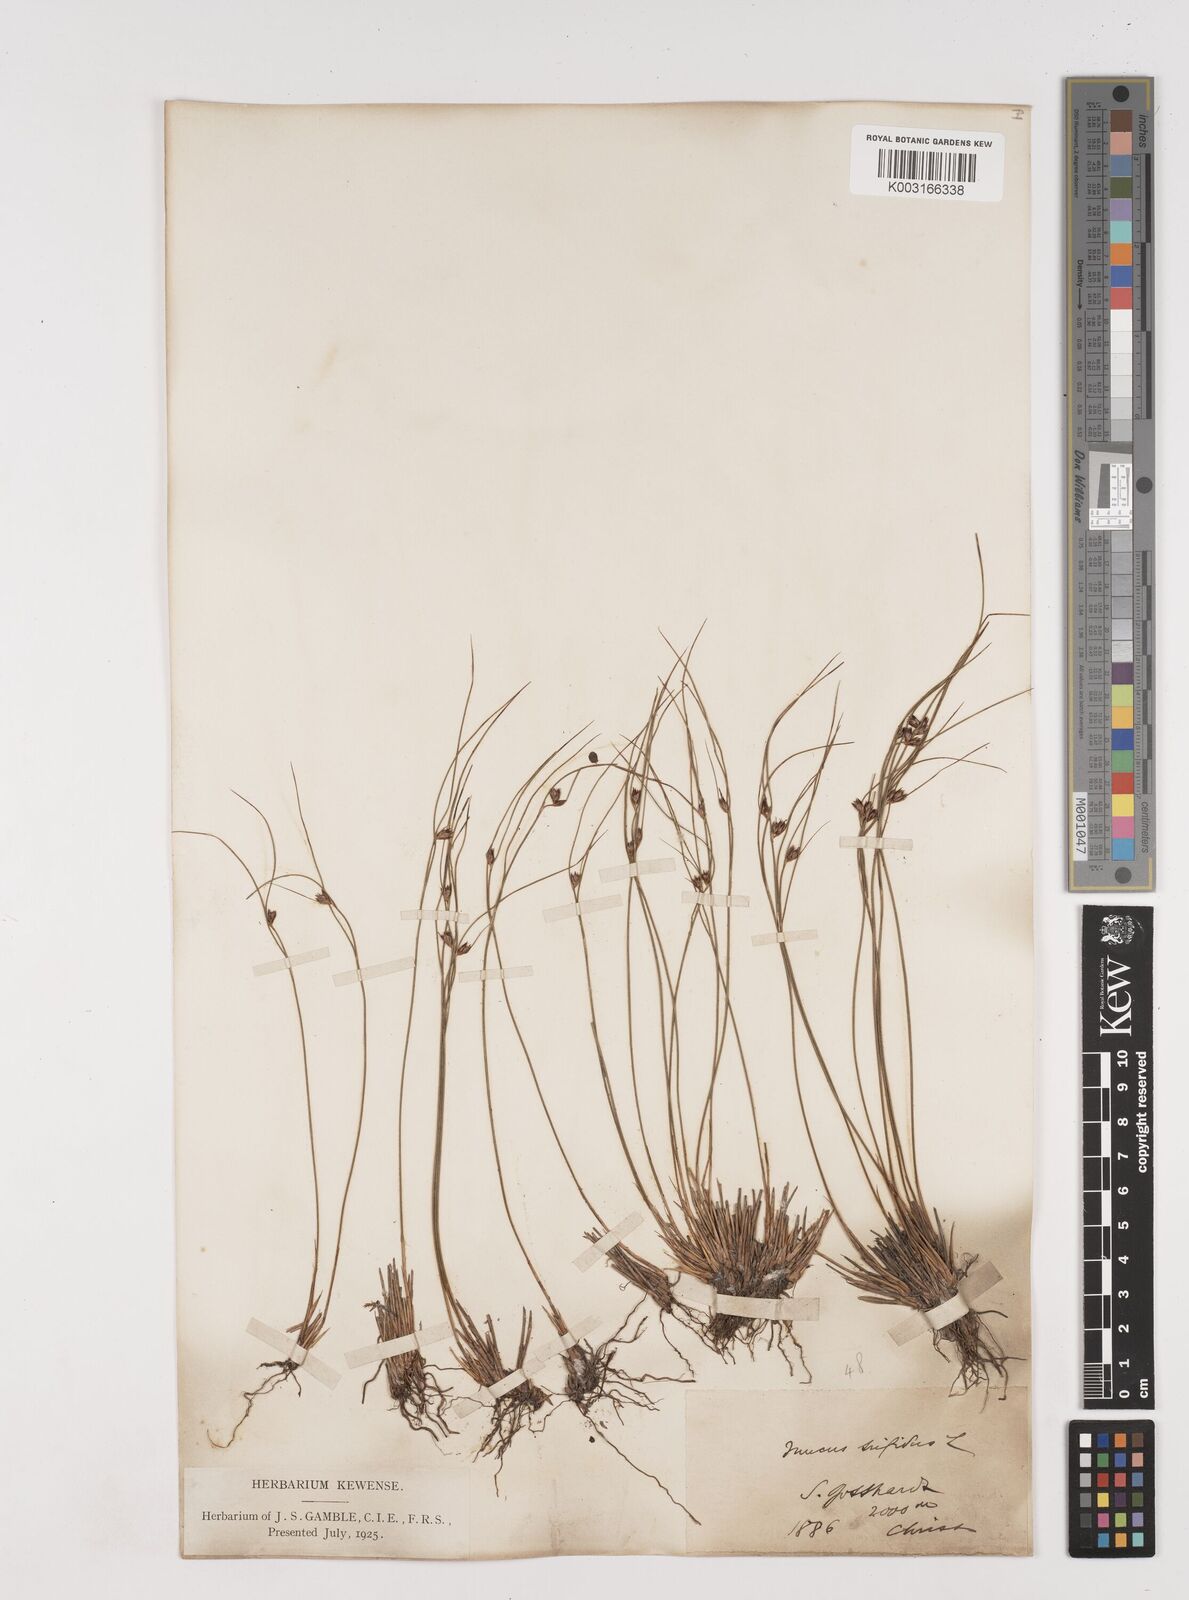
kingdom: Plantae
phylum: Tracheophyta
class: Liliopsida
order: Poales
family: Juncaceae
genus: Oreojuncus
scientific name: Oreojuncus trifidus
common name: Highland rush
